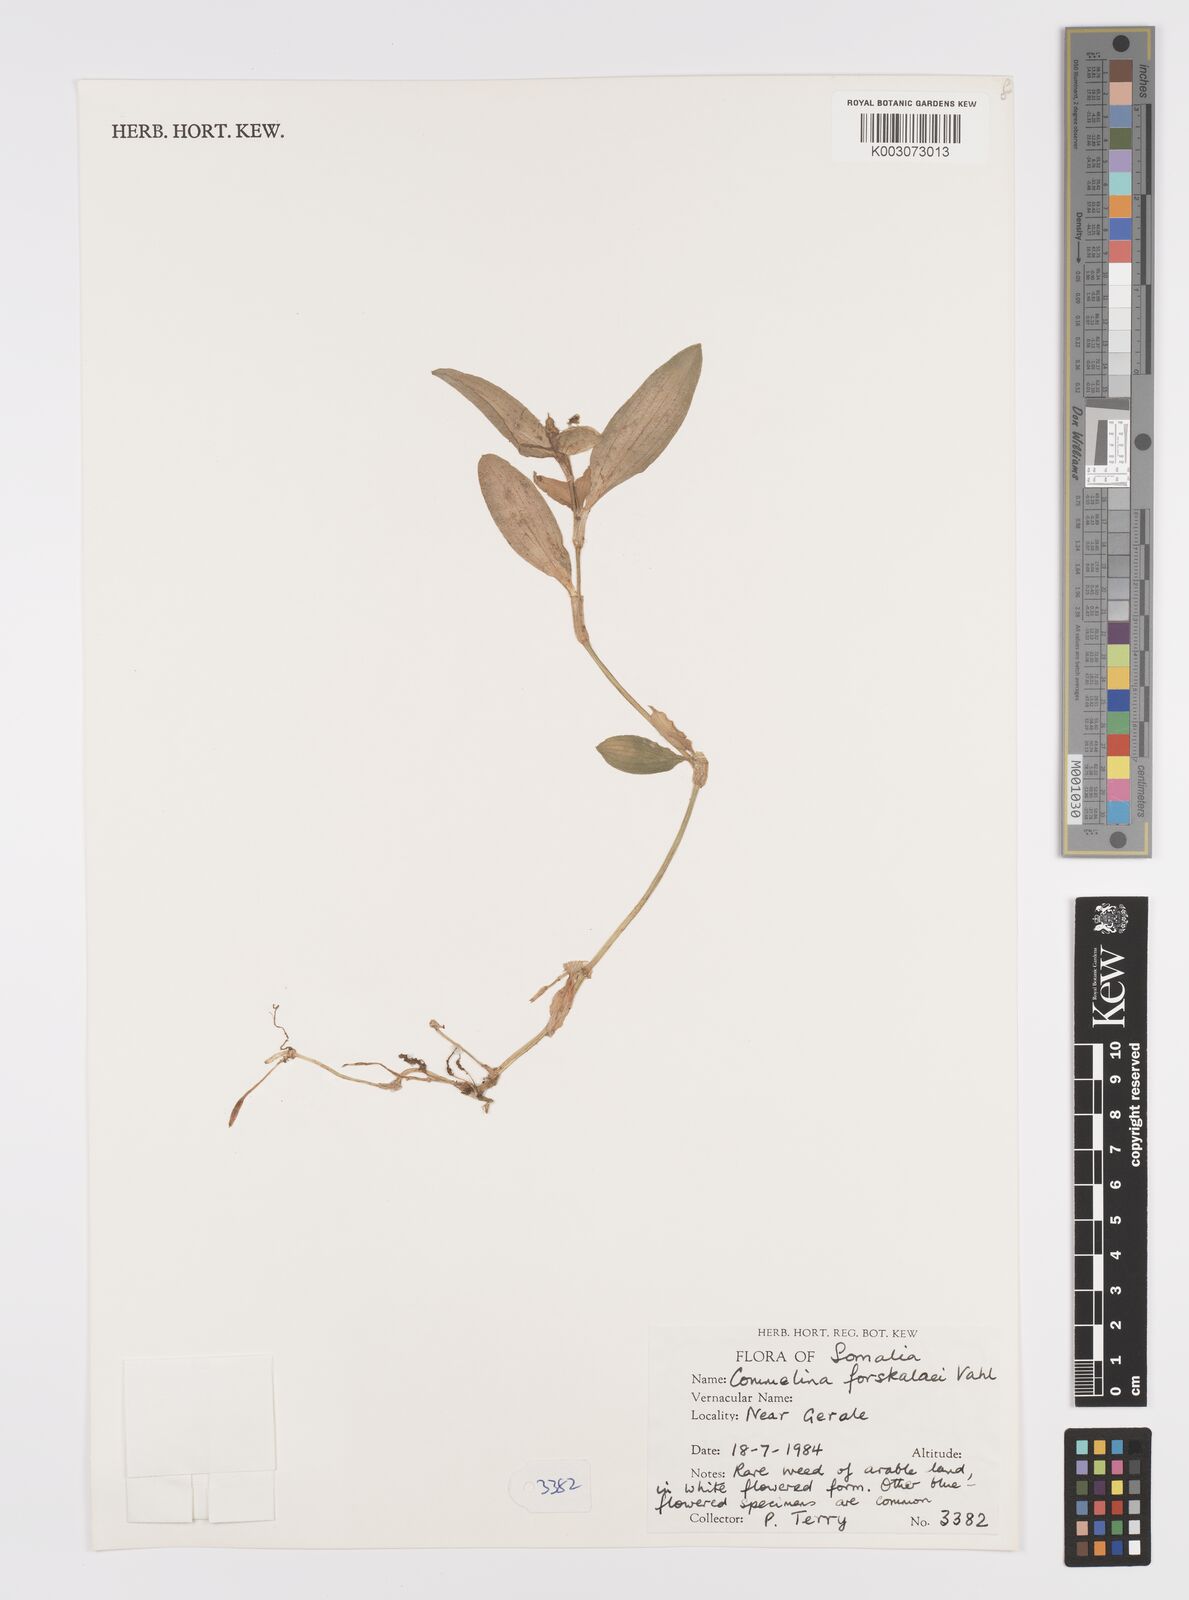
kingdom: Plantae
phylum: Tracheophyta
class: Liliopsida
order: Commelinales
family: Commelinaceae
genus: Commelina
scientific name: Commelina forskaolii
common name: Rat's ear
